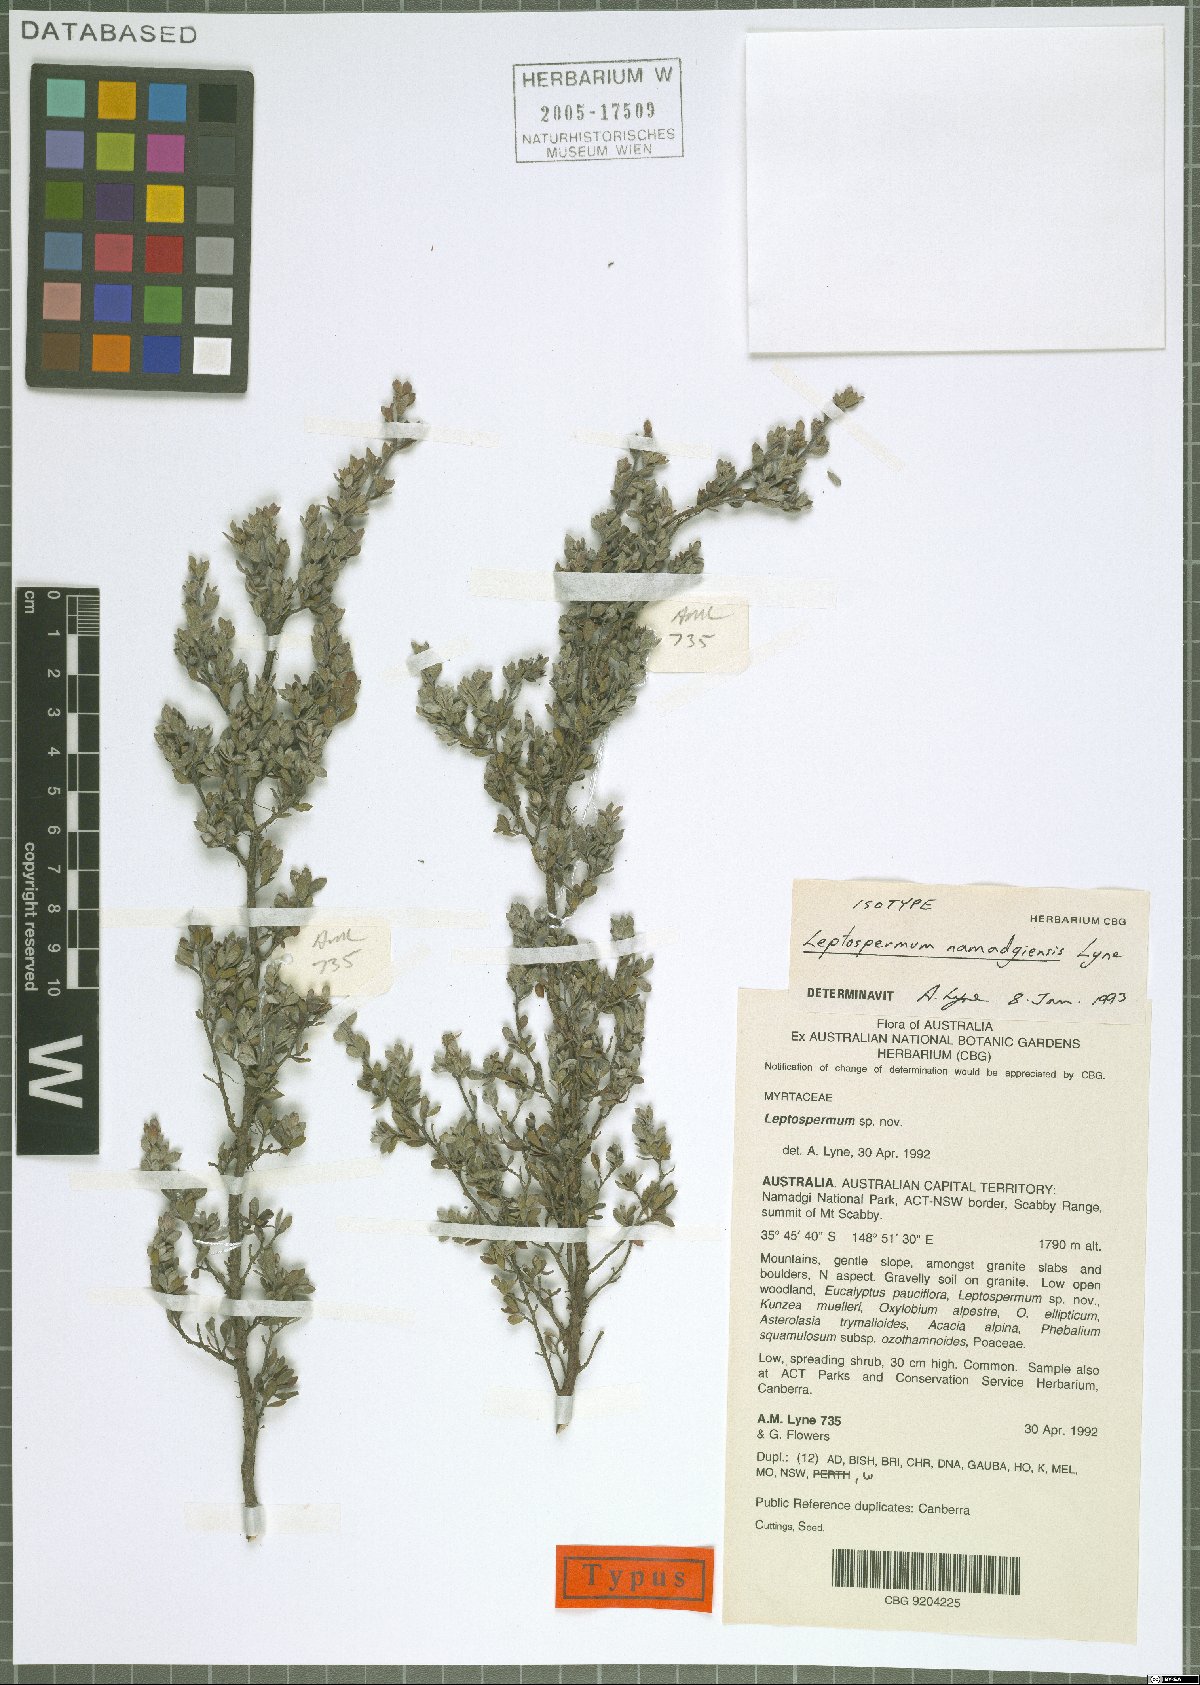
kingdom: Plantae
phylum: Tracheophyta
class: Magnoliopsida
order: Myrtales
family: Myrtaceae
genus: Leptospermum
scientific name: Leptospermum namadgiensis
